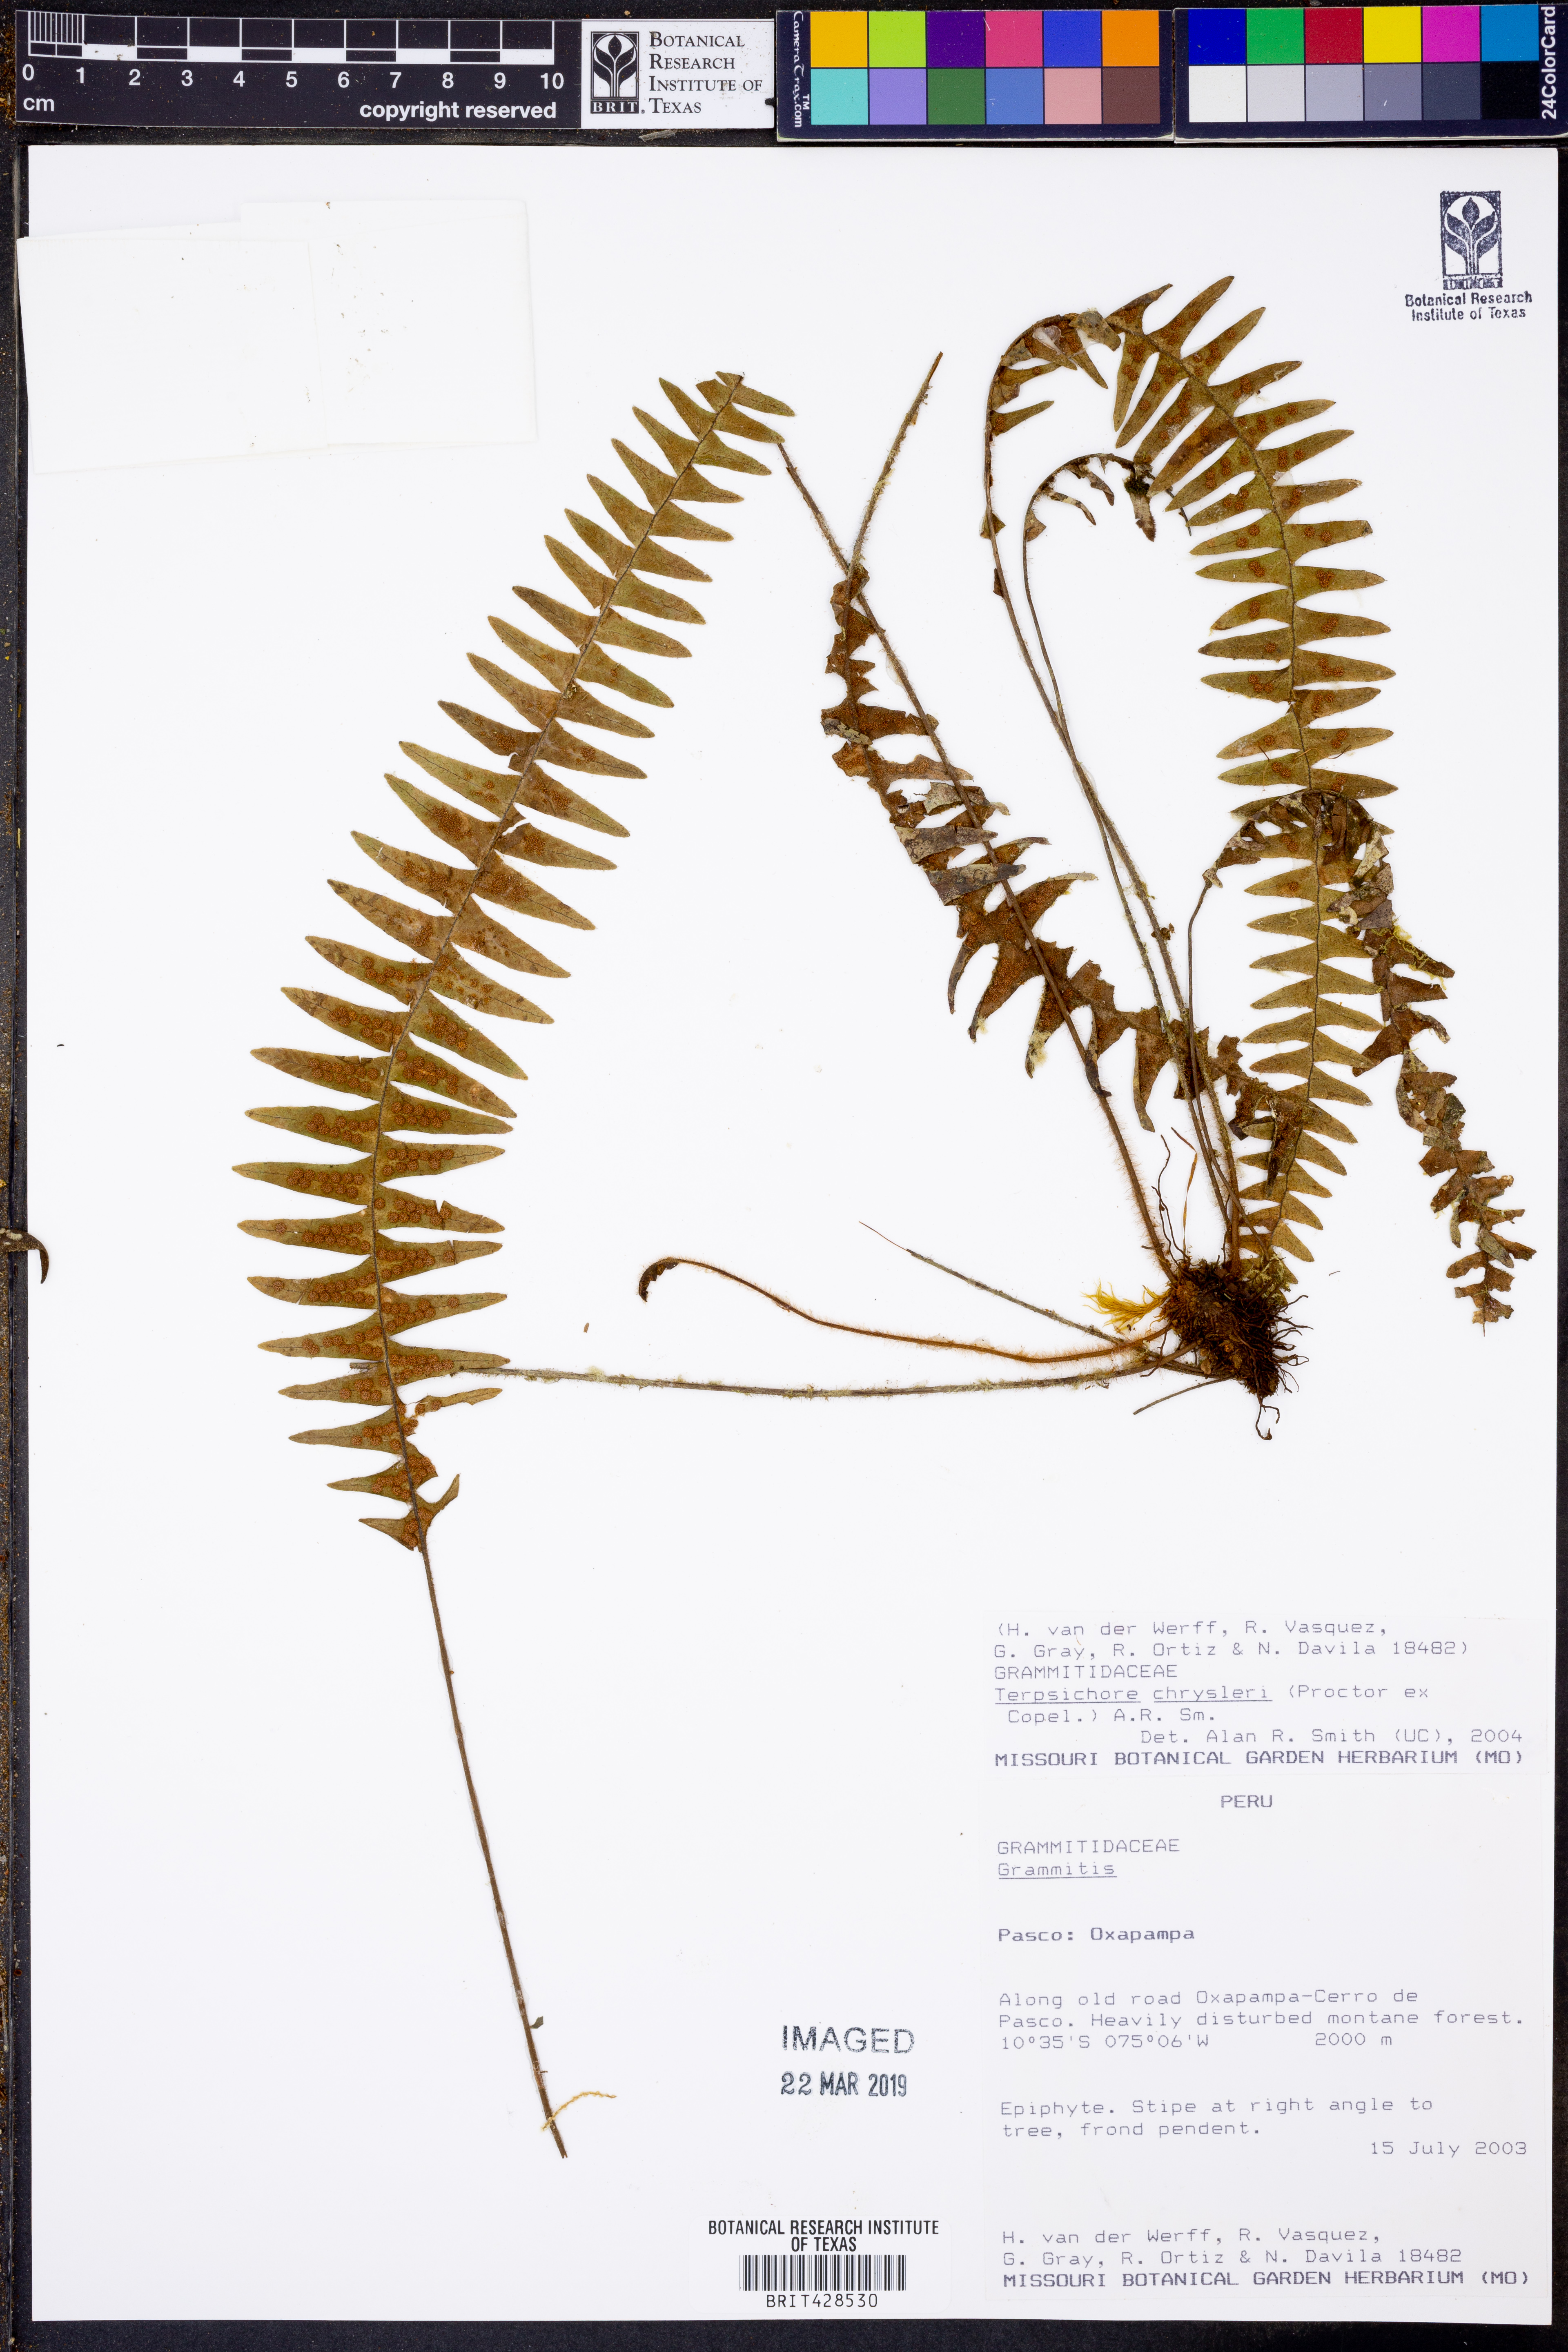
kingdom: Plantae
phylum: Tracheophyta
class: Polypodiopsida
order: Polypodiales
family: Polypodiaceae
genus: Terpsichore
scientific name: Terpsichore chrysleri
